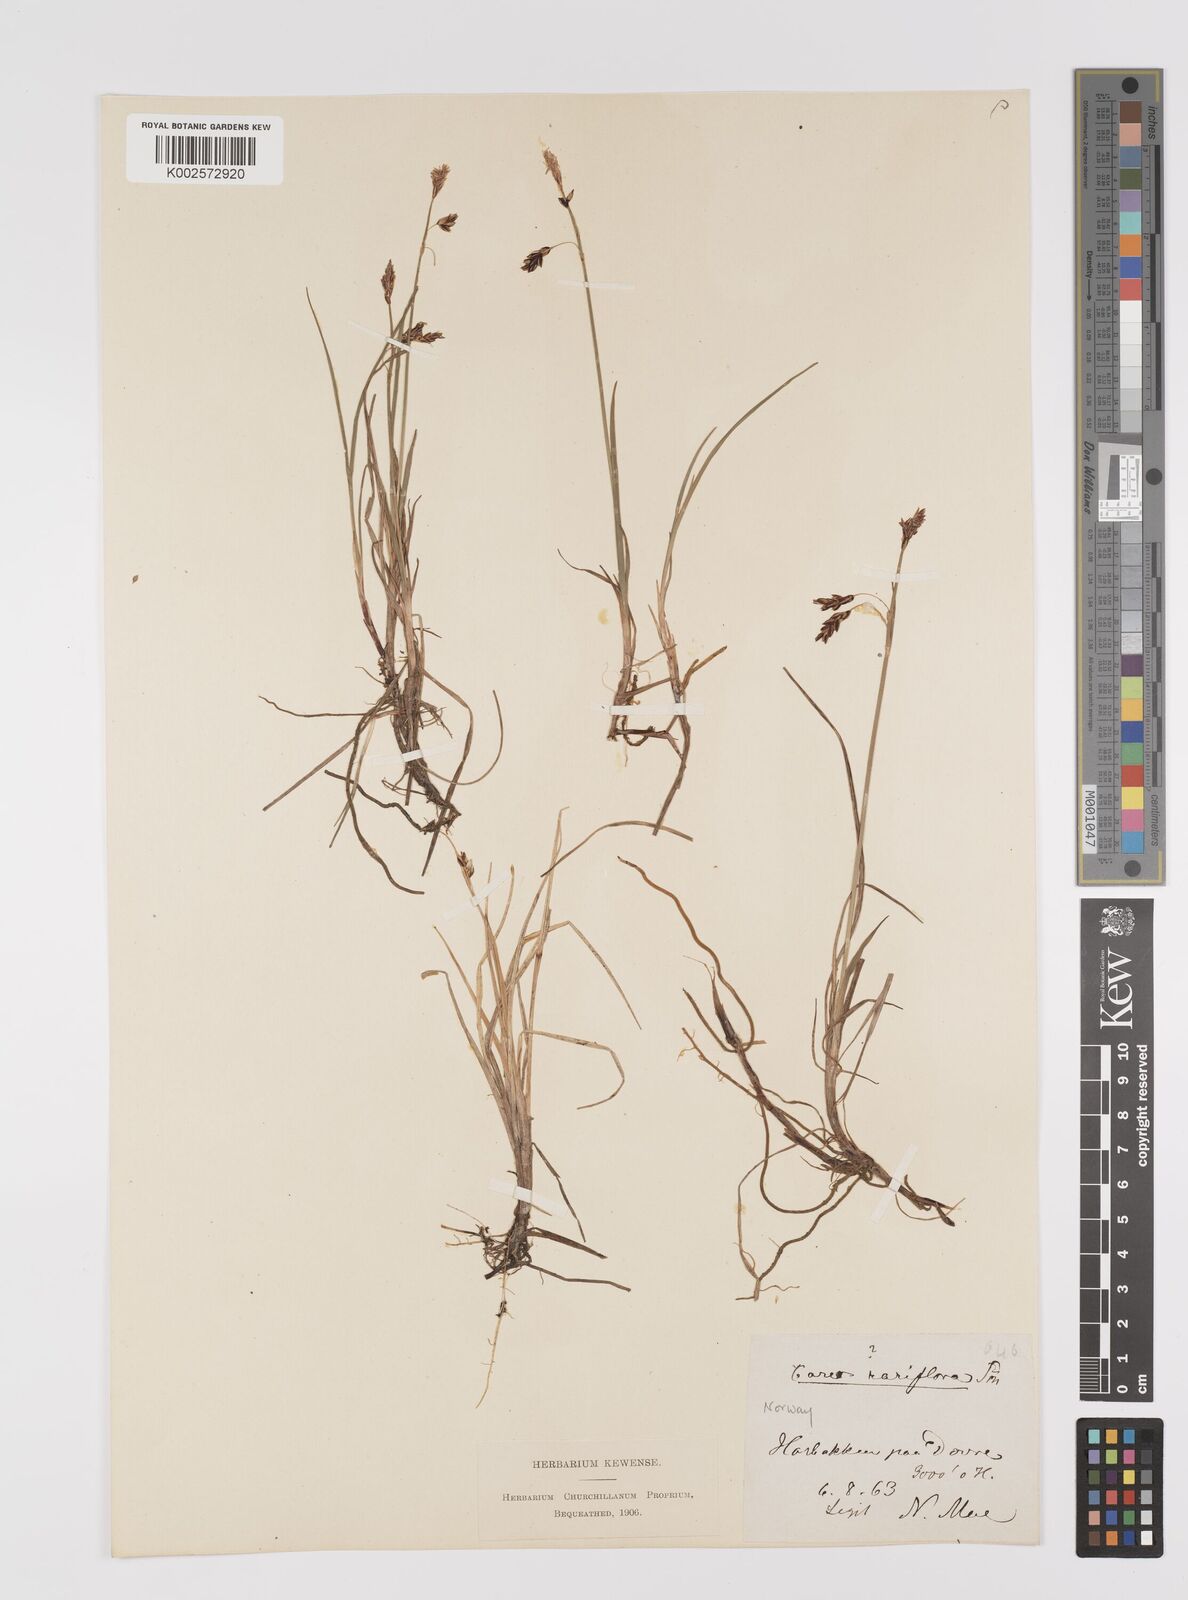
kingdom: Plantae
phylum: Tracheophyta
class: Liliopsida
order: Poales
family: Cyperaceae
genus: Carex
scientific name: Carex rariflora
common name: Loose-flowered alpine sedge
